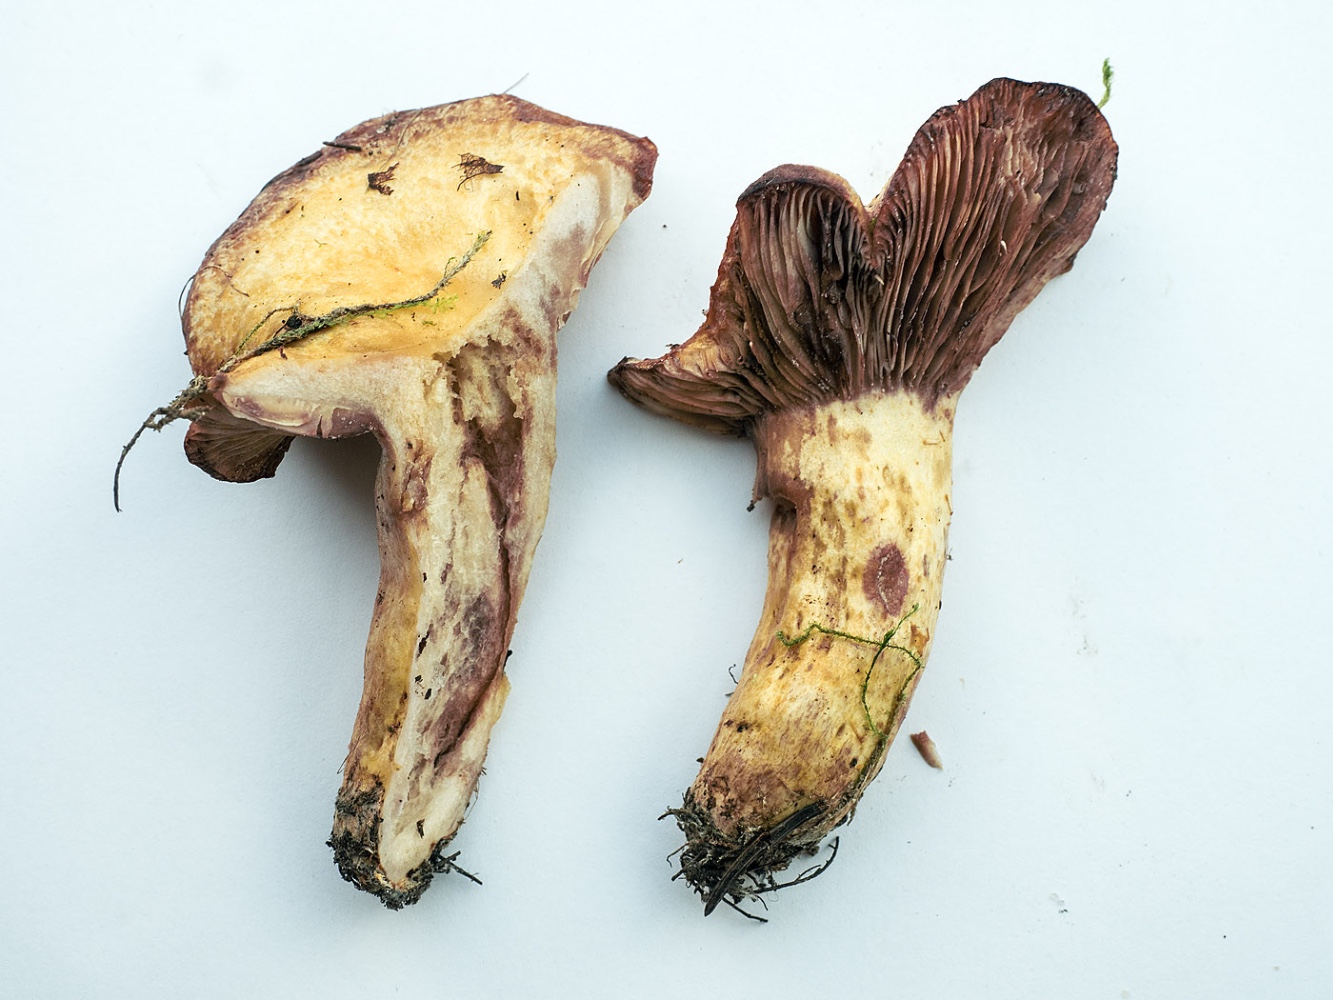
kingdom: Fungi
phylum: Basidiomycota
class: Agaricomycetes
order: Russulales
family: Russulaceae
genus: Lactarius
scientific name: Lactarius repraesentaneus
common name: prægtig mælkehat
